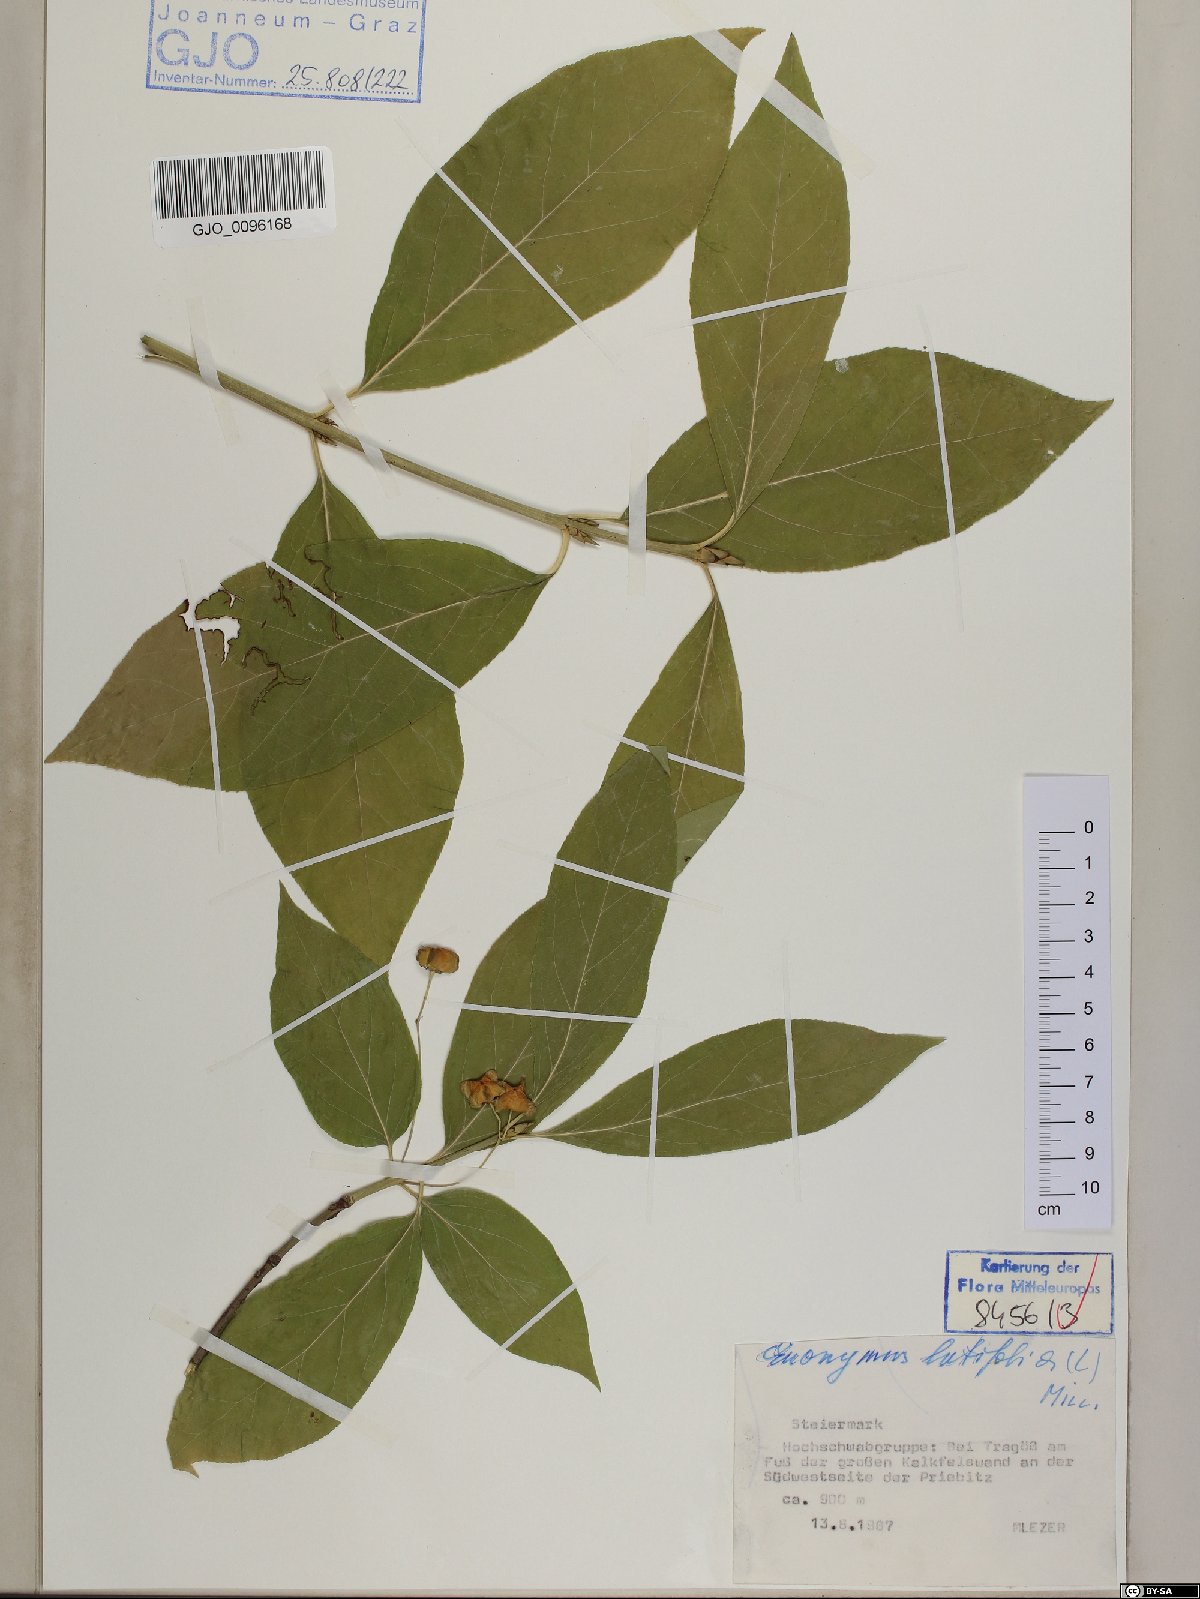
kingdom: Plantae
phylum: Tracheophyta
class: Magnoliopsida
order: Celastrales
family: Celastraceae
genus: Euonymus
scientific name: Euonymus latifolius
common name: Large-leaved spindle
